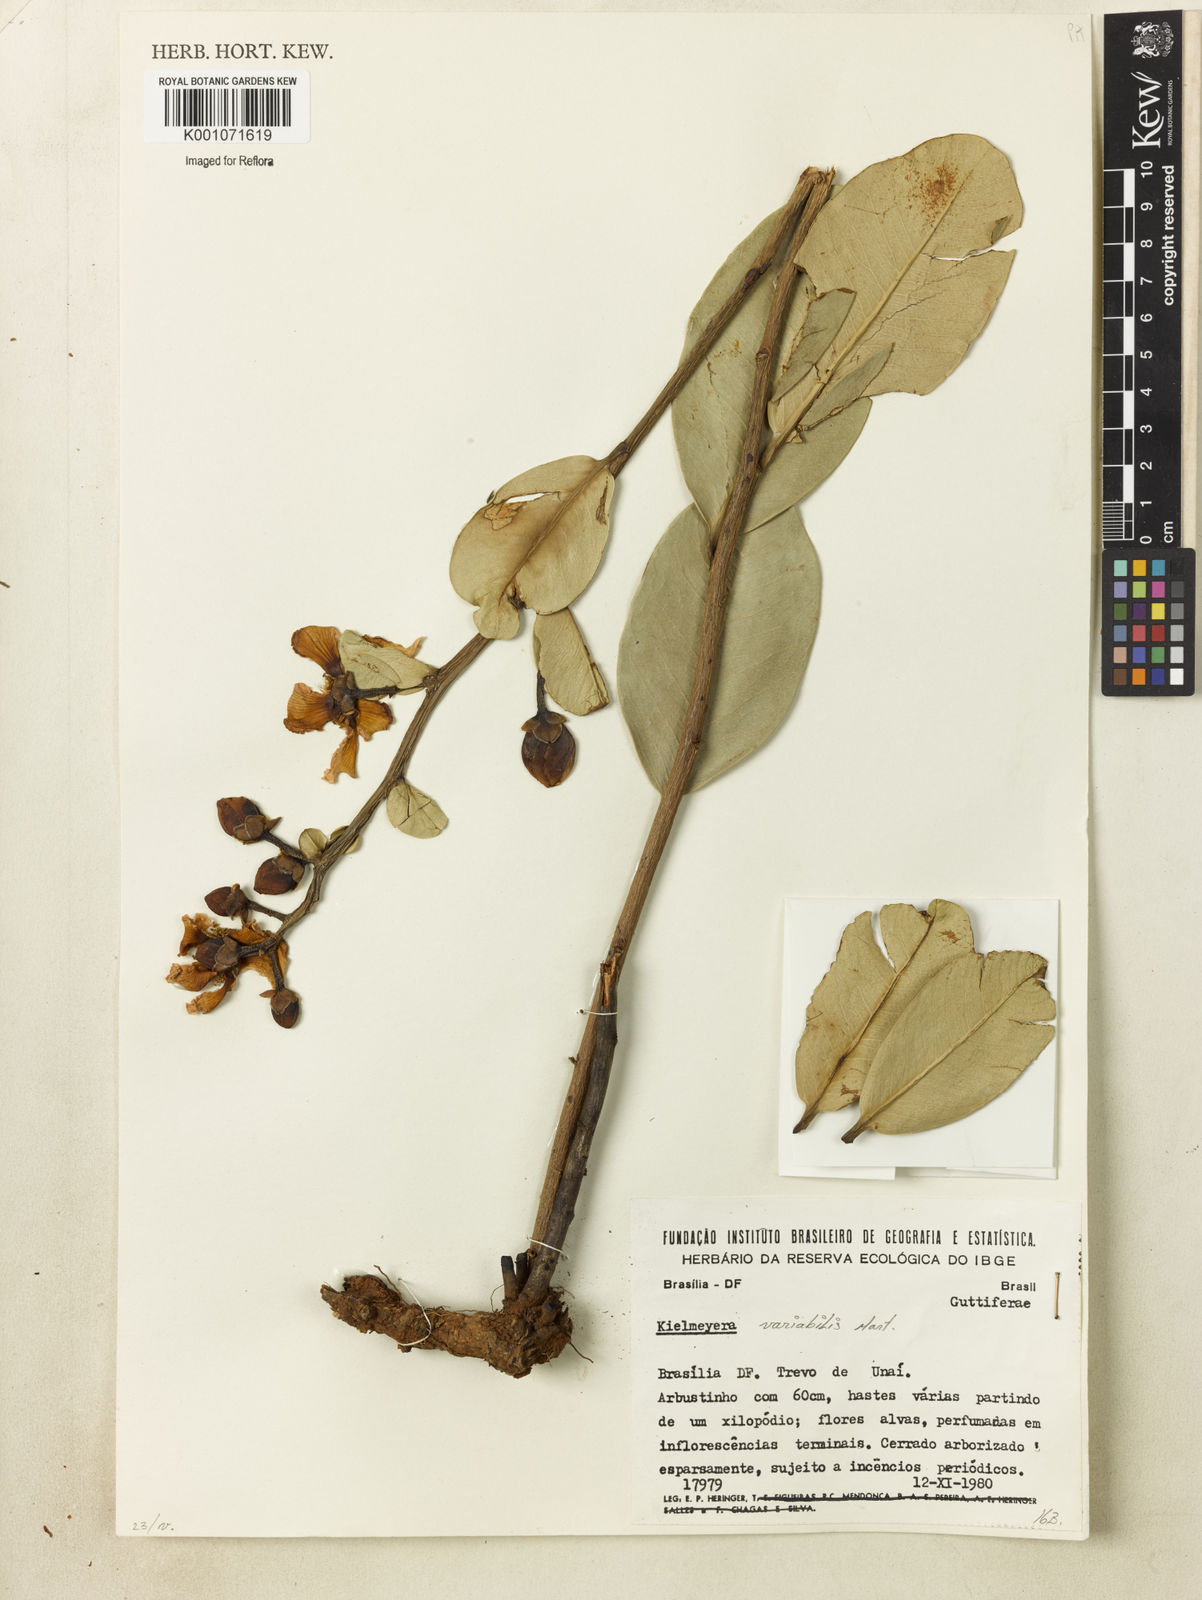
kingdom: Plantae
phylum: Tracheophyta
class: Magnoliopsida
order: Malpighiales
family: Calophyllaceae
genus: Kielmeyera
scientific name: Kielmeyera variabilis
